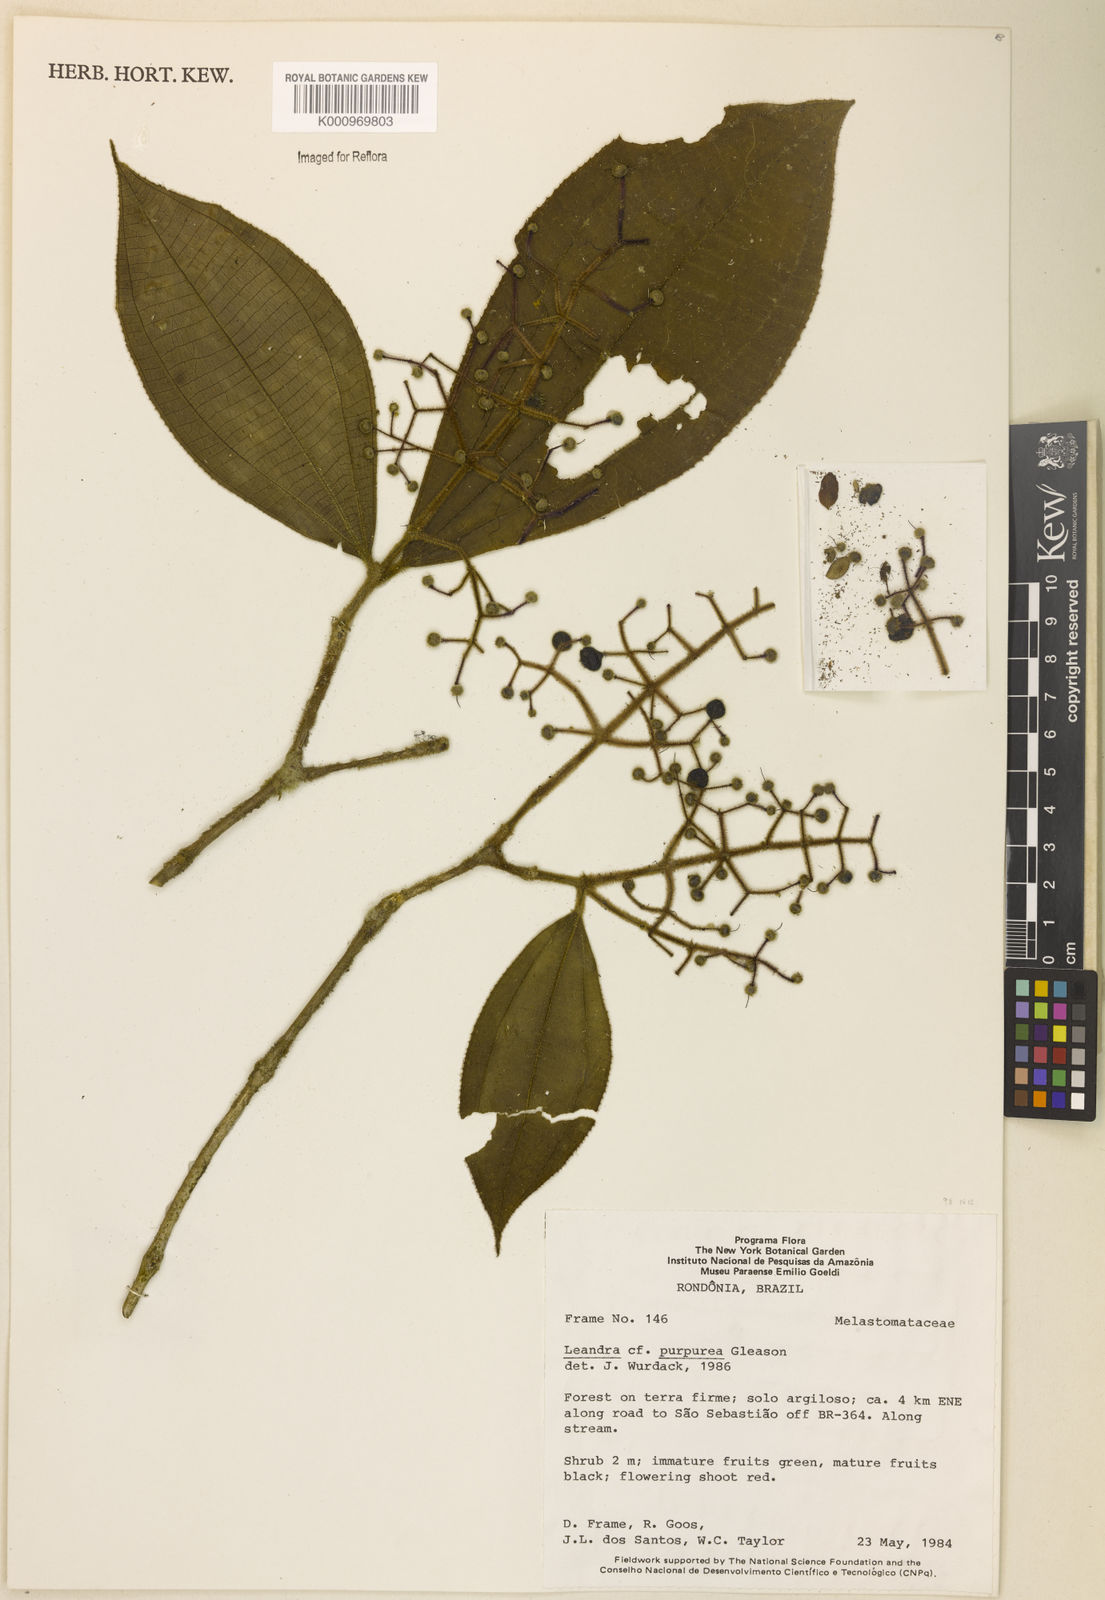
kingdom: Plantae
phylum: Tracheophyta
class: Magnoliopsida
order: Myrtales
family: Melastomataceae
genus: Miconia
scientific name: Miconia
